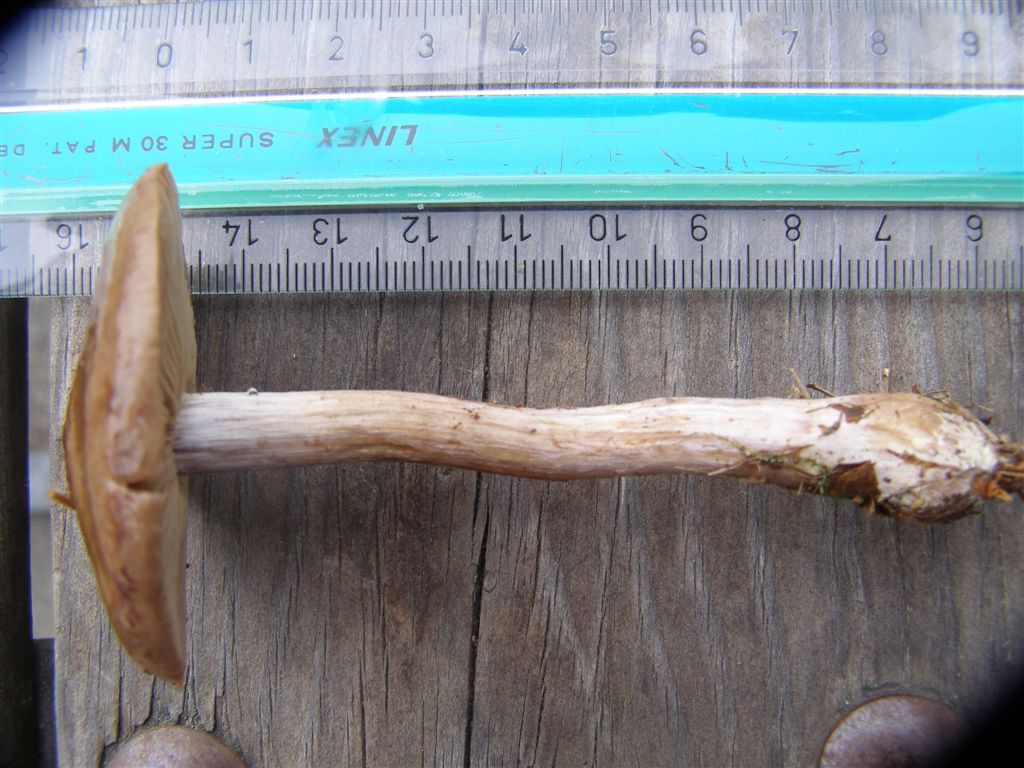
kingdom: Fungi
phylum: Basidiomycota
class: Agaricomycetes
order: Agaricales
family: Cortinariaceae
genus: Thaxterogaster
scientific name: Thaxterogaster scaurus
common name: sump-slørhat
